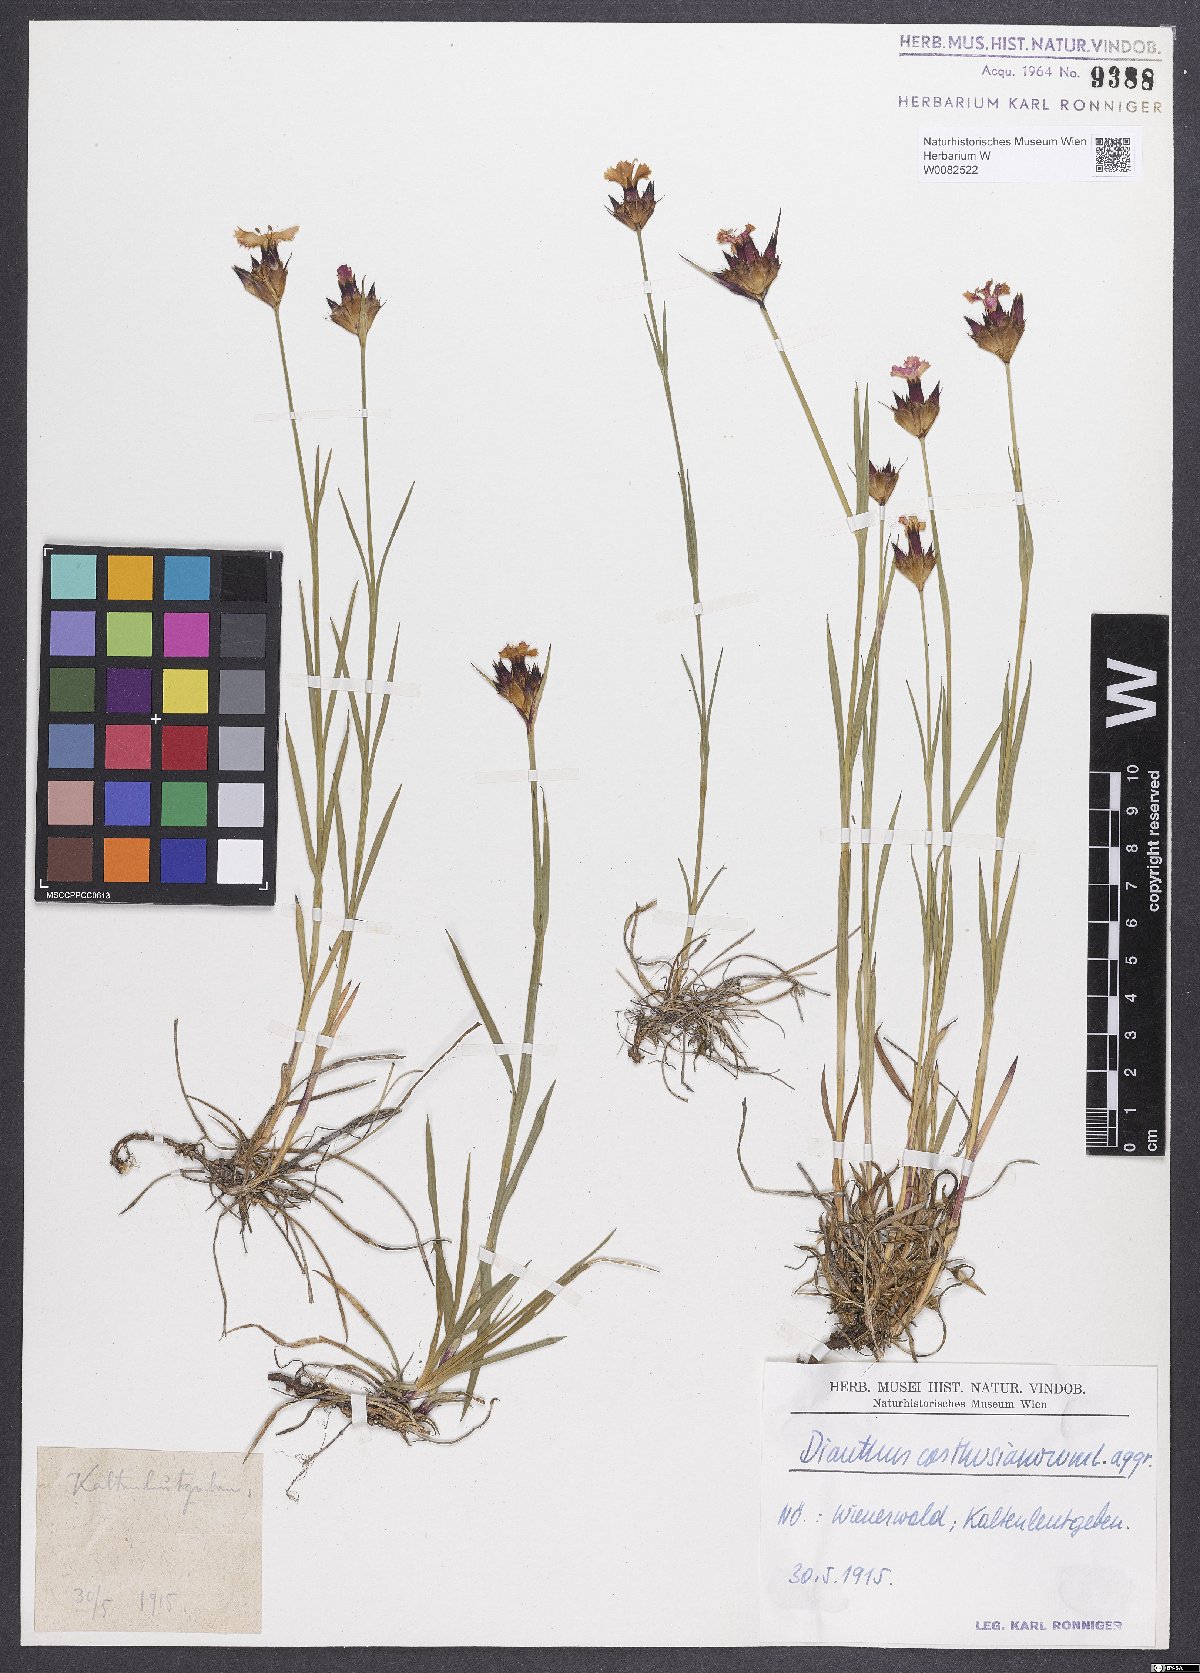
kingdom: Plantae
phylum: Tracheophyta
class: Magnoliopsida
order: Caryophyllales
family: Caryophyllaceae
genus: Dianthus
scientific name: Dianthus carthusianorum
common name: Carthusian pink
